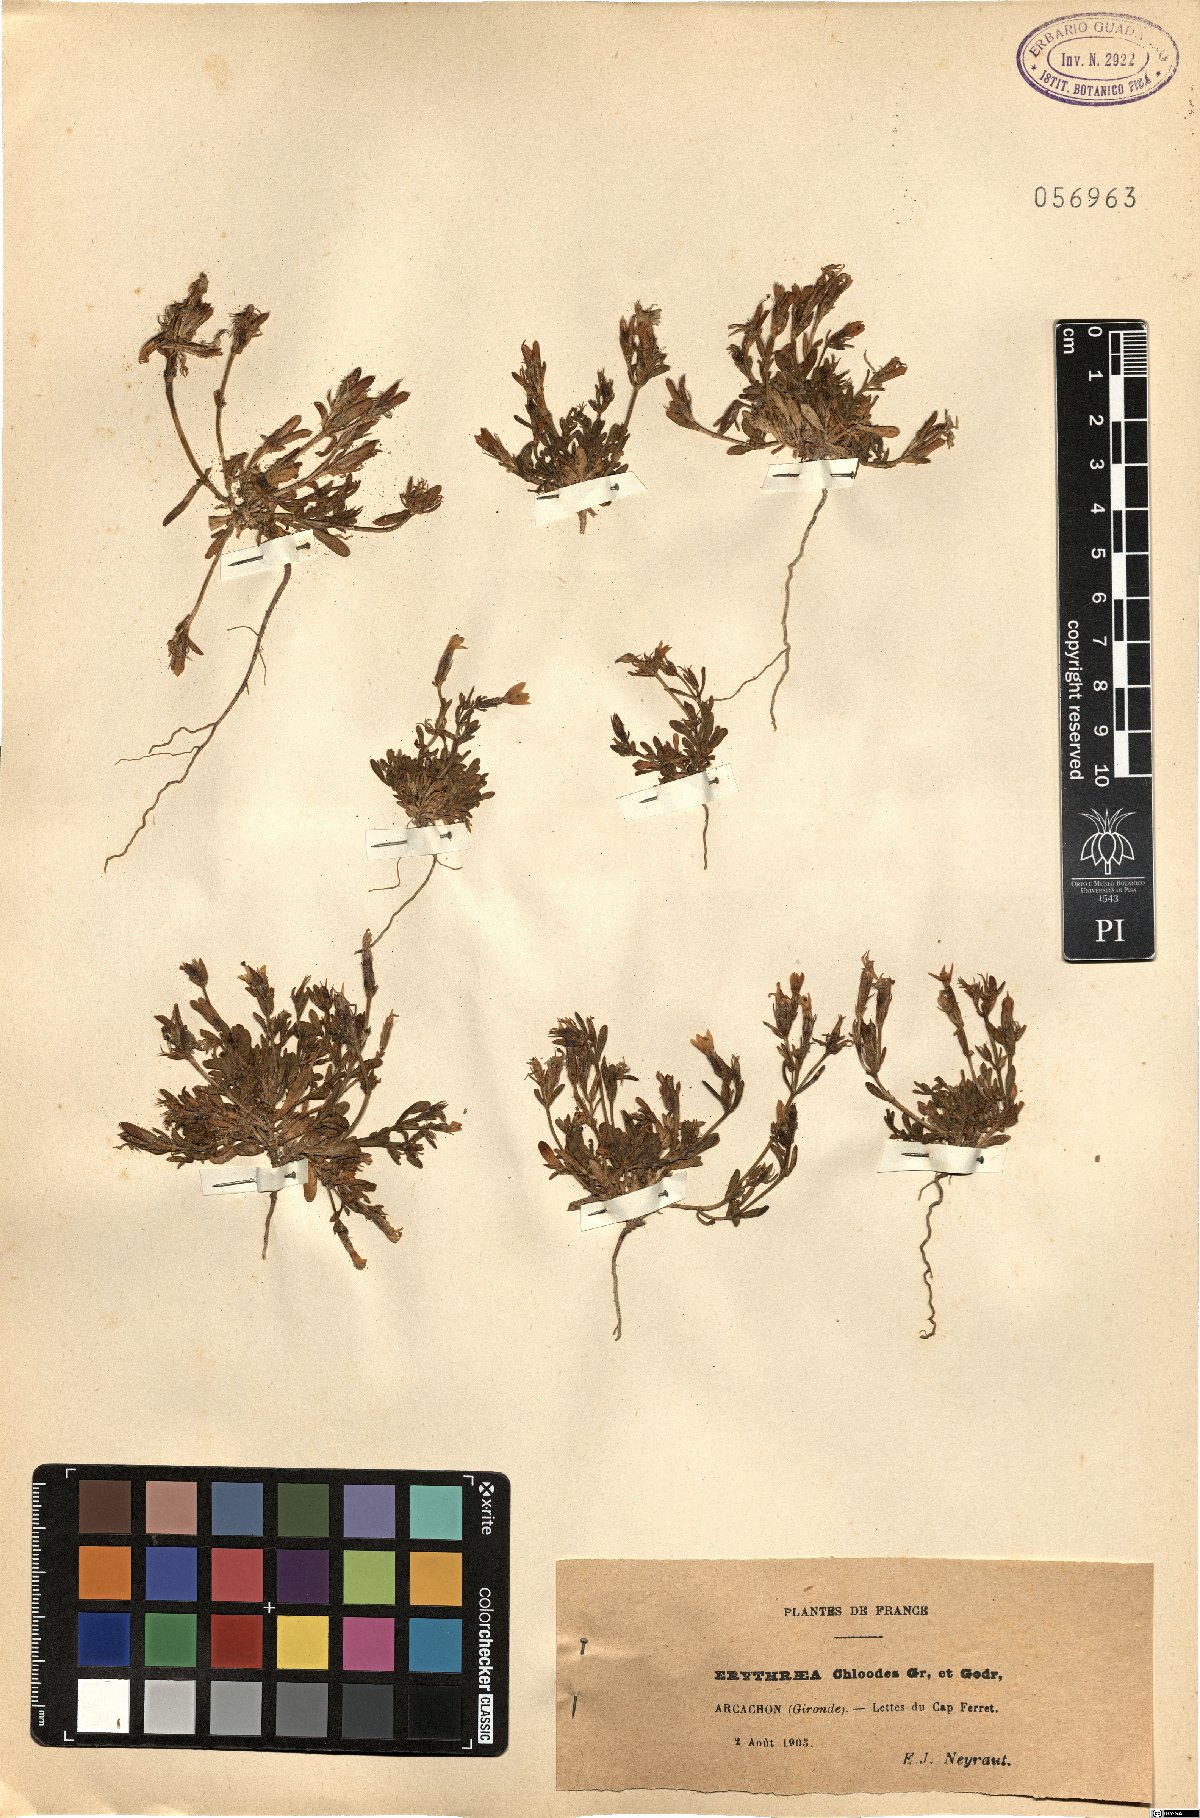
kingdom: Plantae
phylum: Tracheophyta
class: Magnoliopsida
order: Gentianales
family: Gentianaceae
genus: Centaurium
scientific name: Centaurium chloodes
